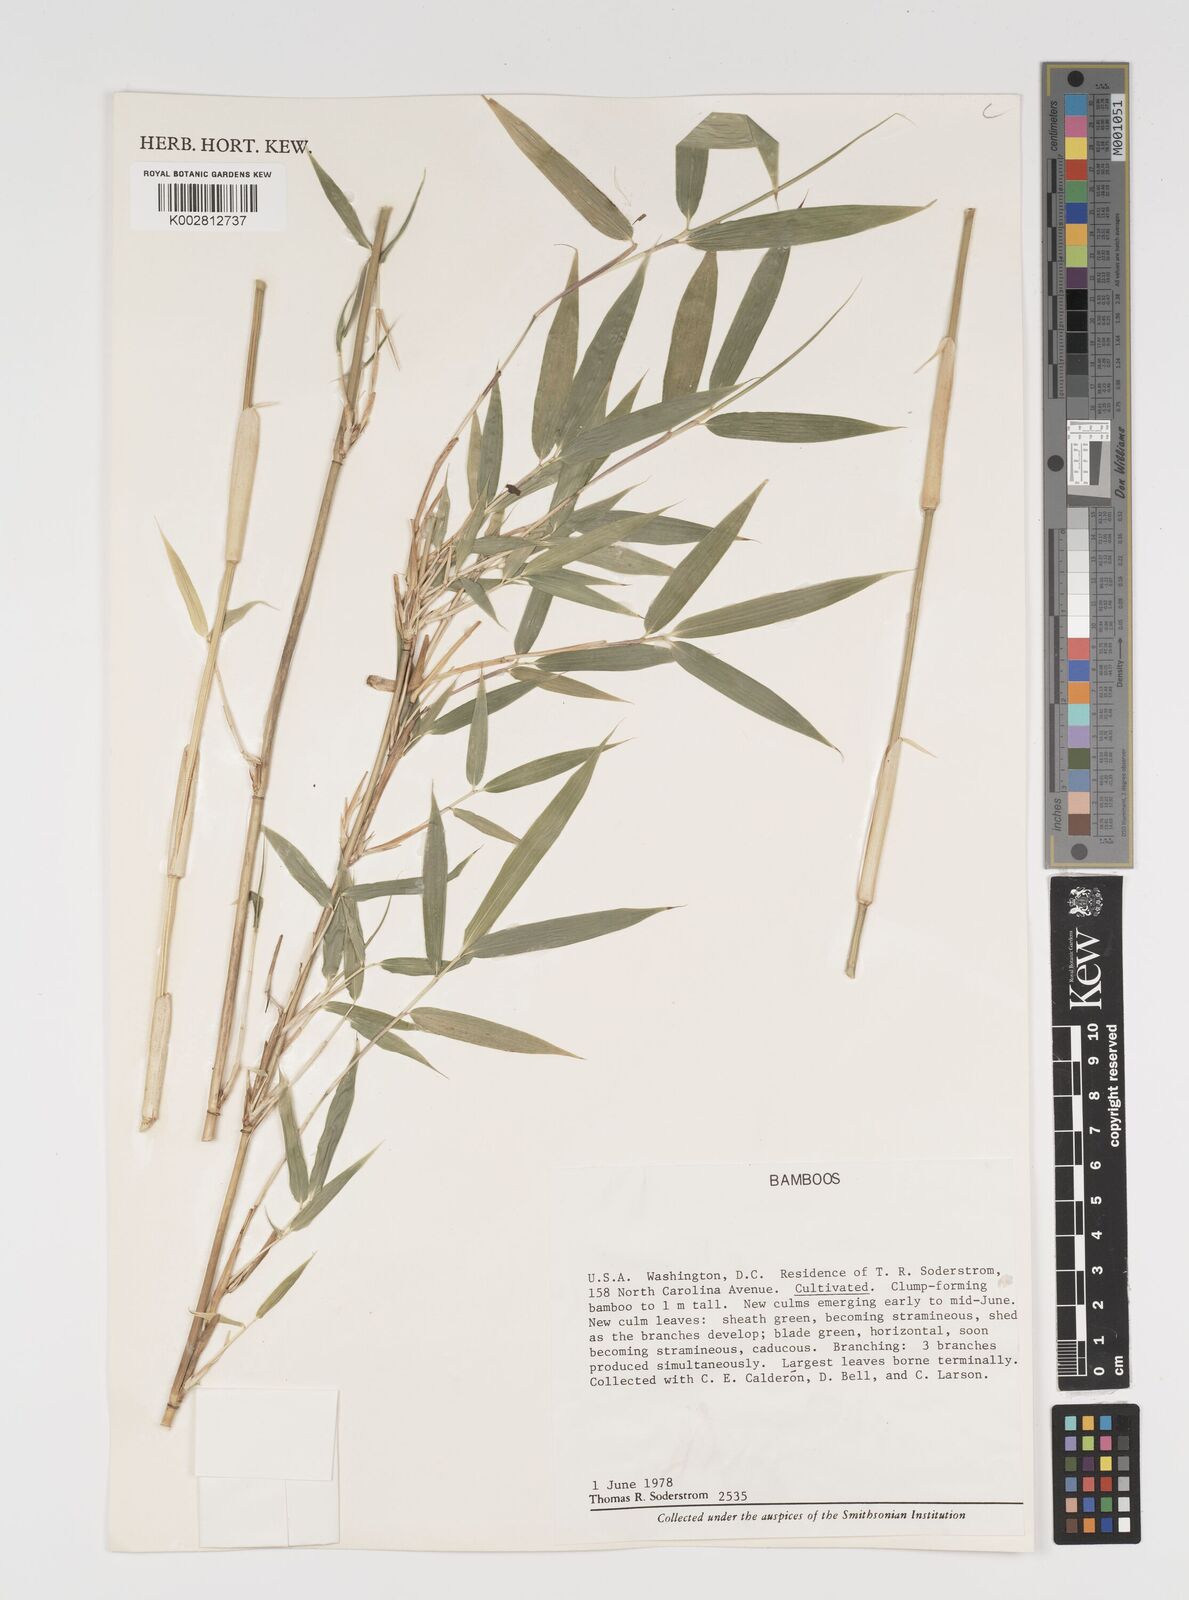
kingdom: Plantae
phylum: Tracheophyta
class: Liliopsida
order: Poales
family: Poaceae
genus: Arundinaria
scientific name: Arundinaria
